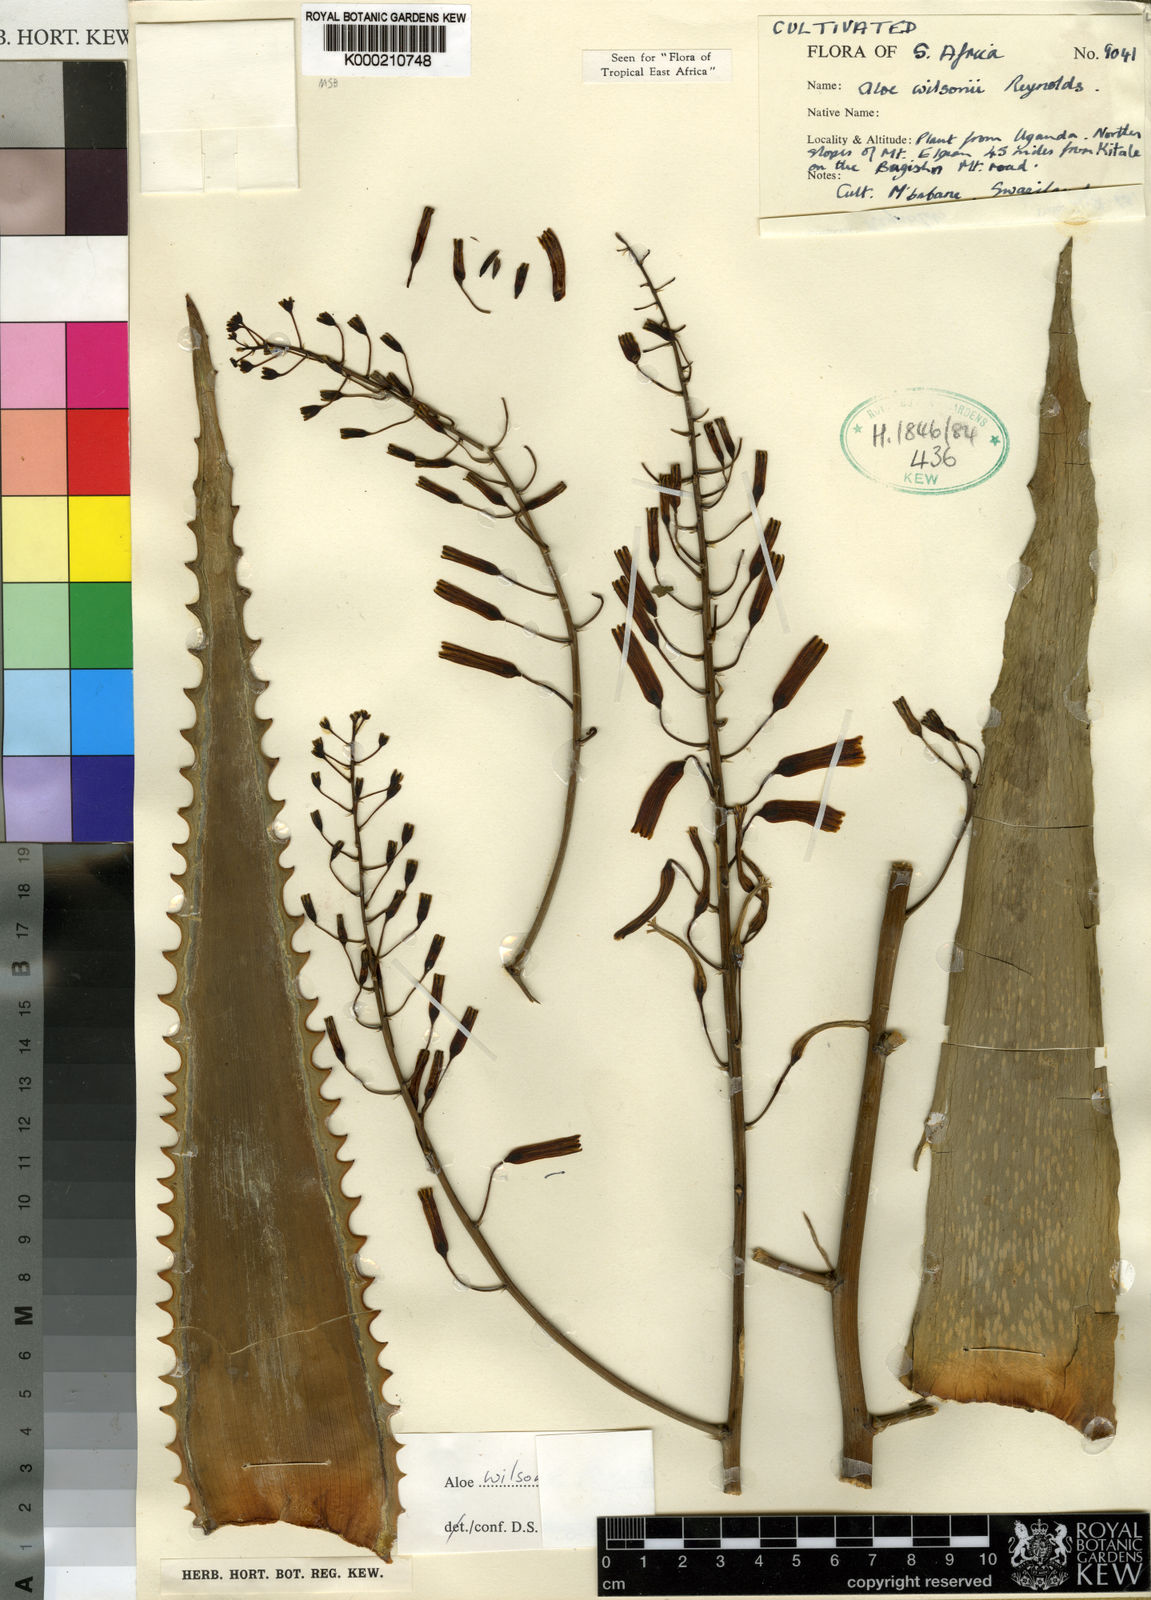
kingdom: Plantae
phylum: Tracheophyta
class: Liliopsida
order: Asparagales
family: Asphodelaceae
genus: Aloe
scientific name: Aloe wilsonii
